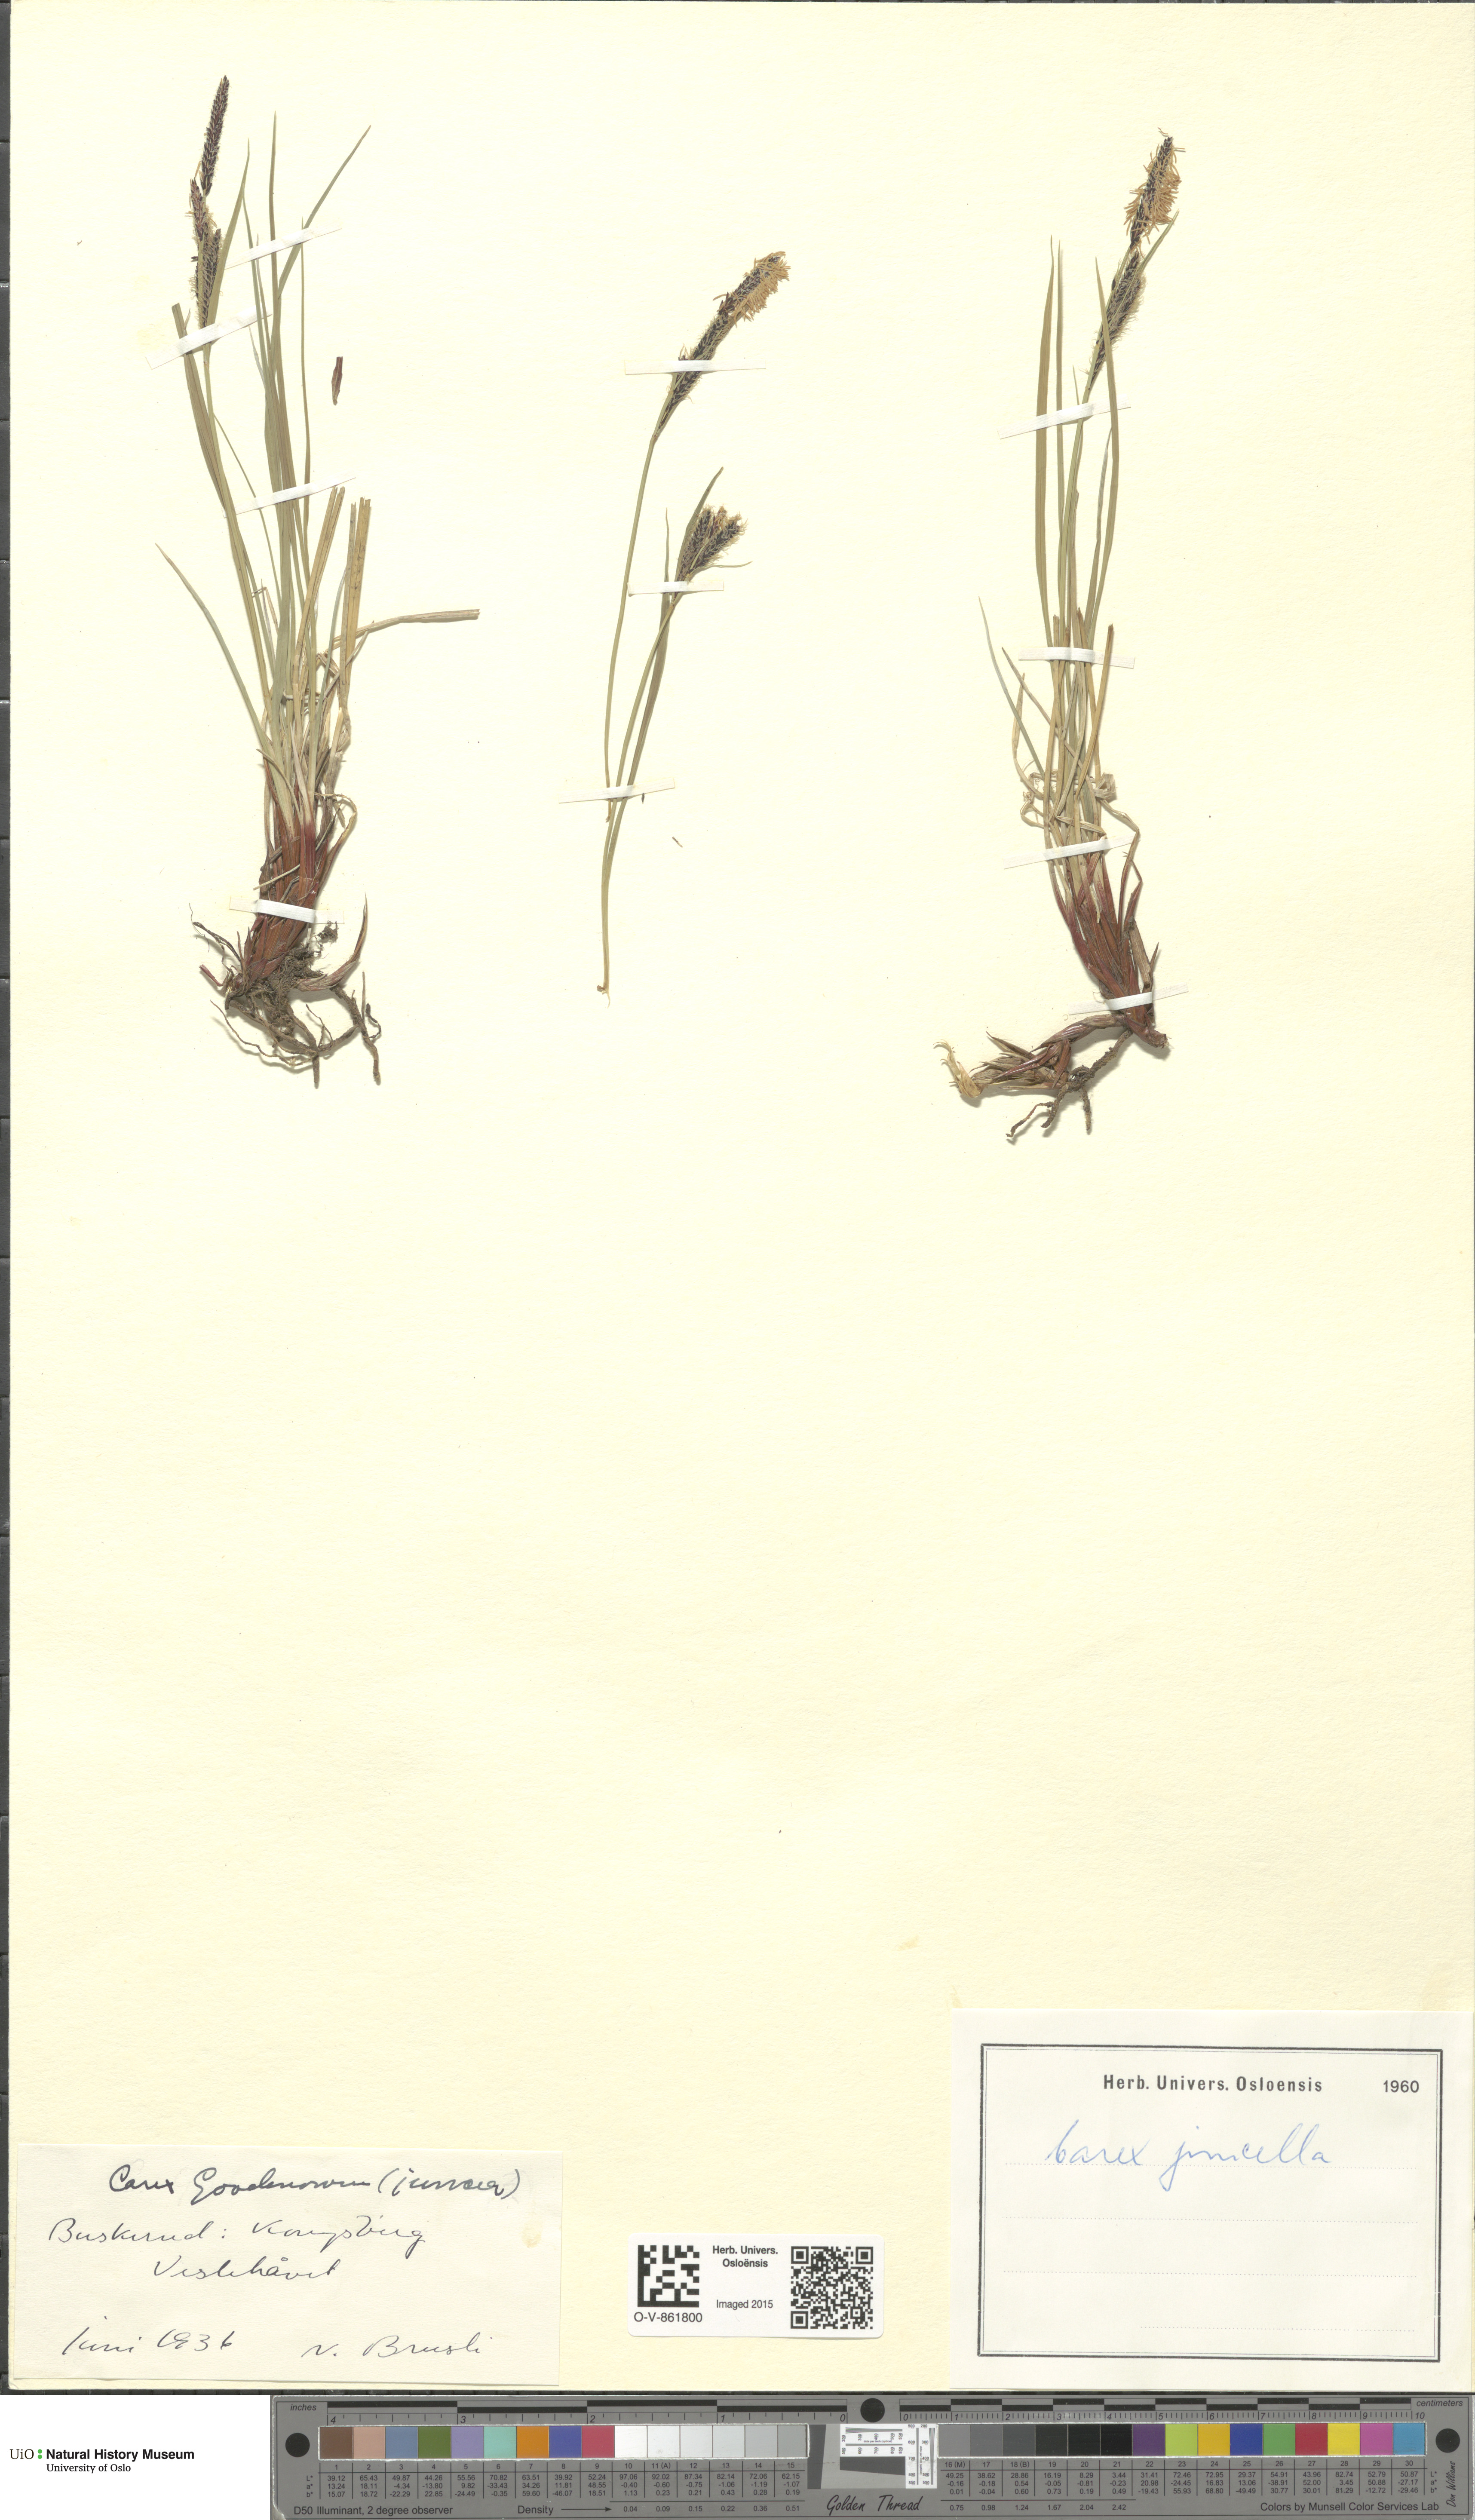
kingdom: Plantae
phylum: Tracheophyta
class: Liliopsida
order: Poales
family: Cyperaceae
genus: Carex
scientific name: Carex nigra
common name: Common sedge
